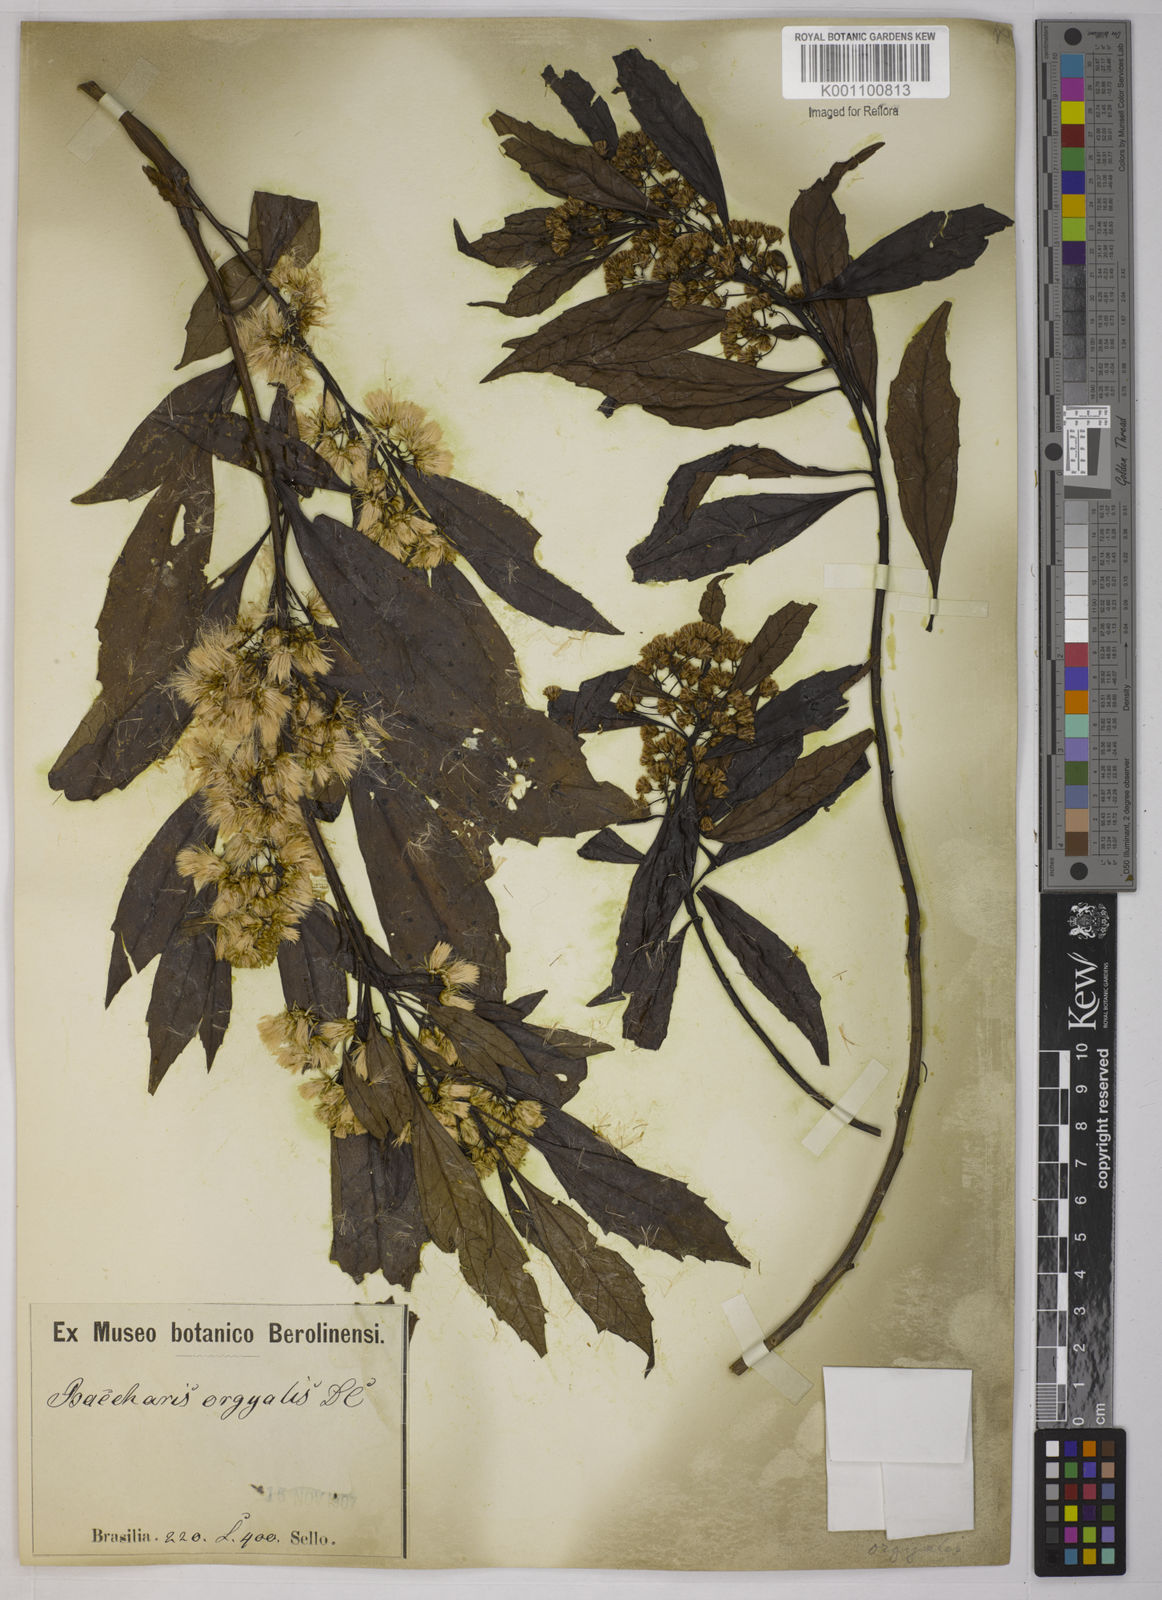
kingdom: Plantae
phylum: Tracheophyta
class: Magnoliopsida
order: Asterales
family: Asteraceae
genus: Baccharis
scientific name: Baccharis dentata
